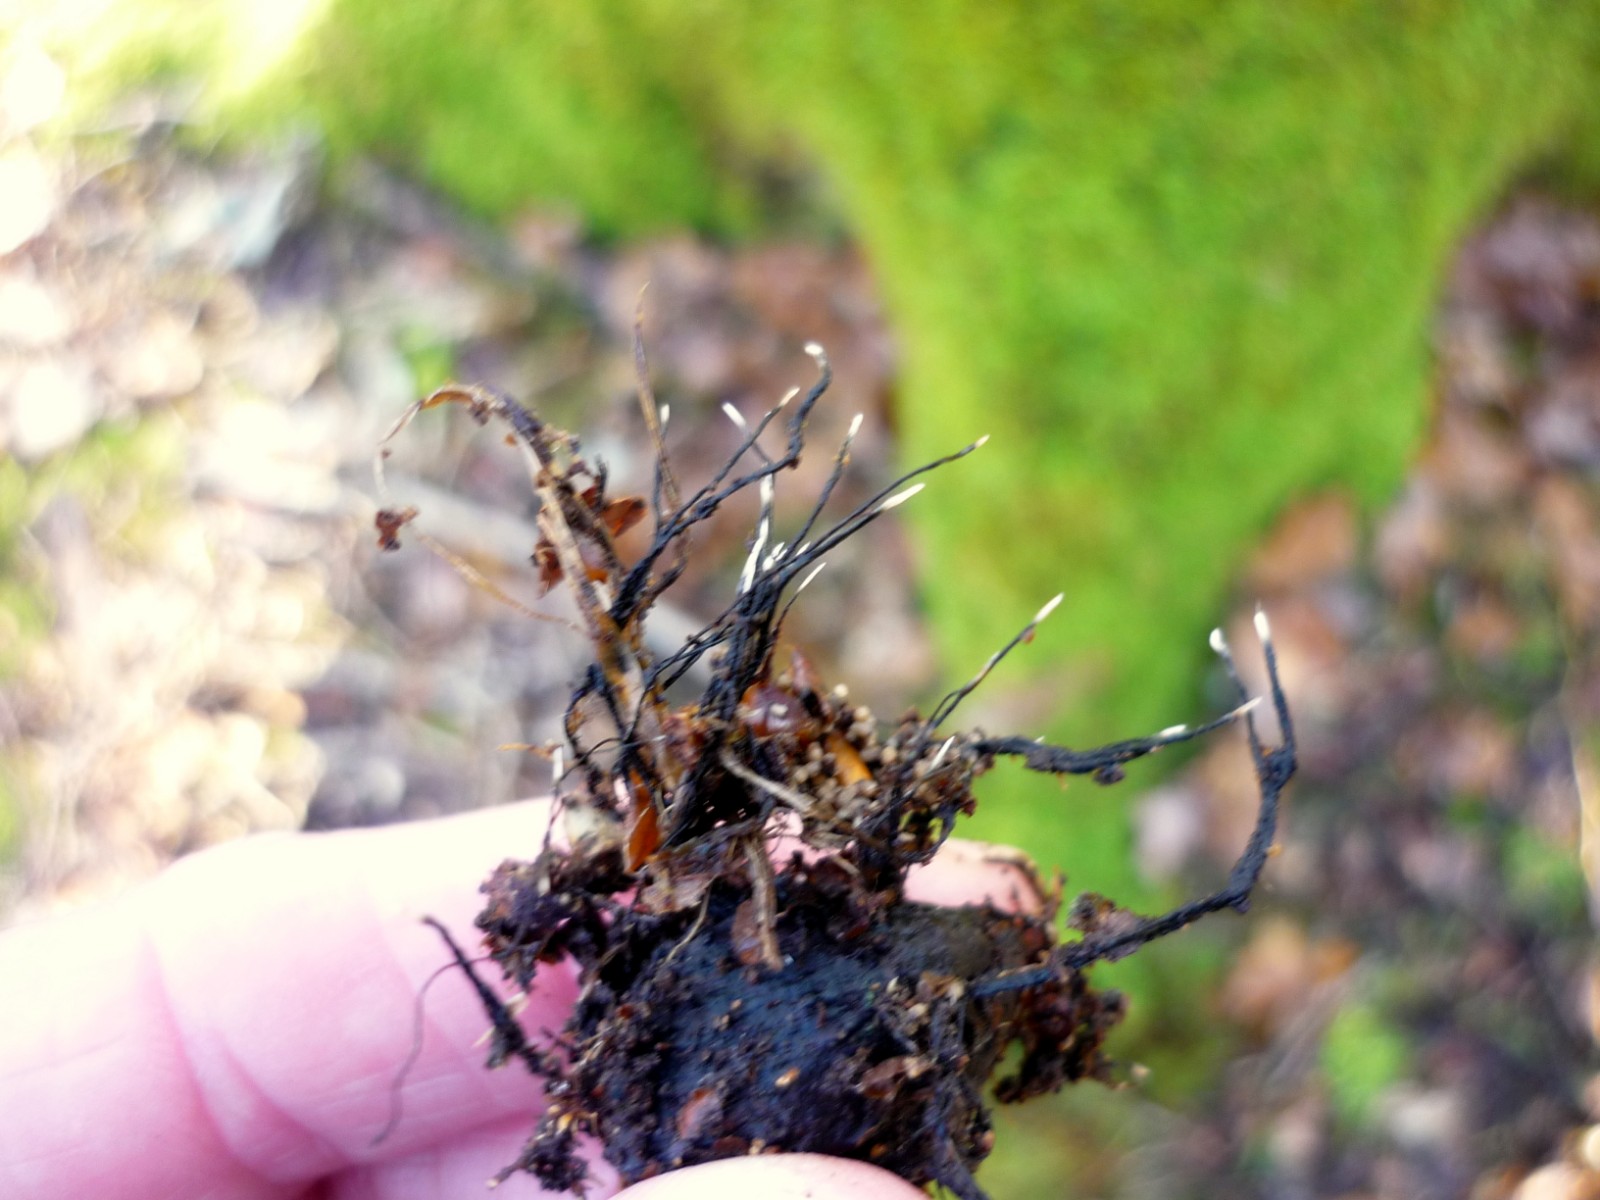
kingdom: Fungi
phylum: Ascomycota
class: Sordariomycetes
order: Xylariales
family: Xylariaceae
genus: Xylaria
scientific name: Xylaria carpophila
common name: bogskål-stødsvamp
